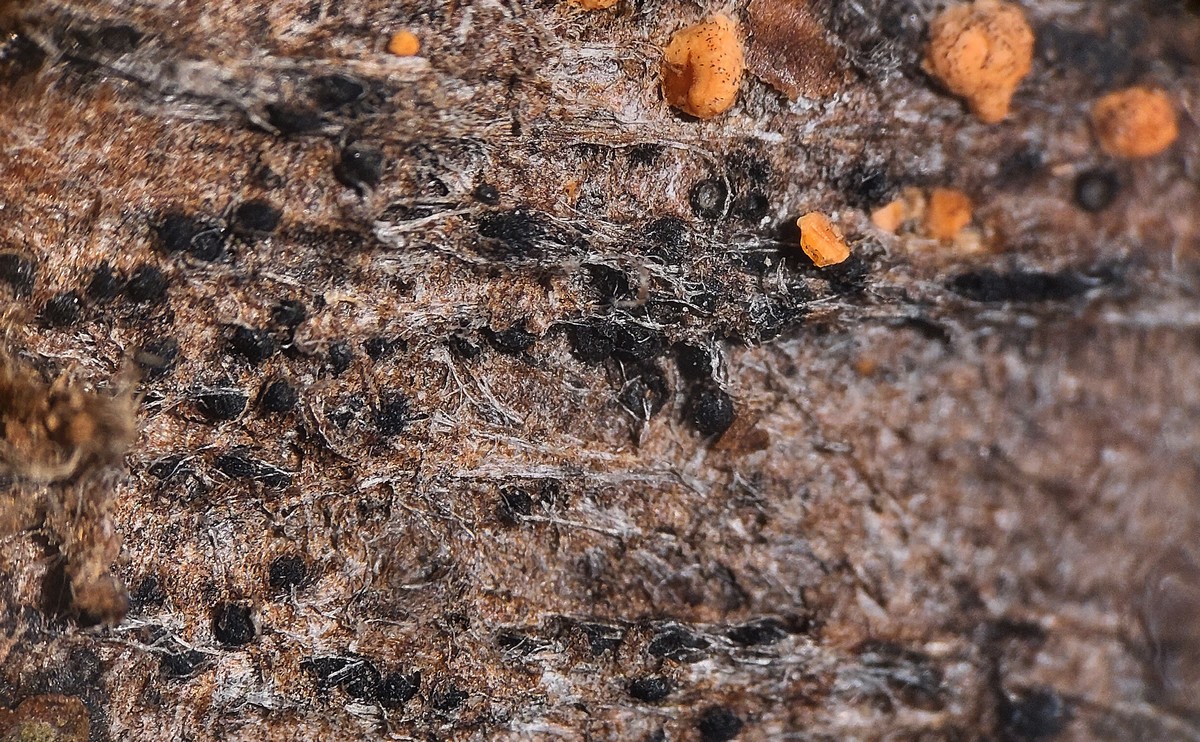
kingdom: Fungi
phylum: Ascomycota
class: Dothideomycetes
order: Botryosphaeriales
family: Botryosphaeriaceae
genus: Diplodia
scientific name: Diplodia
